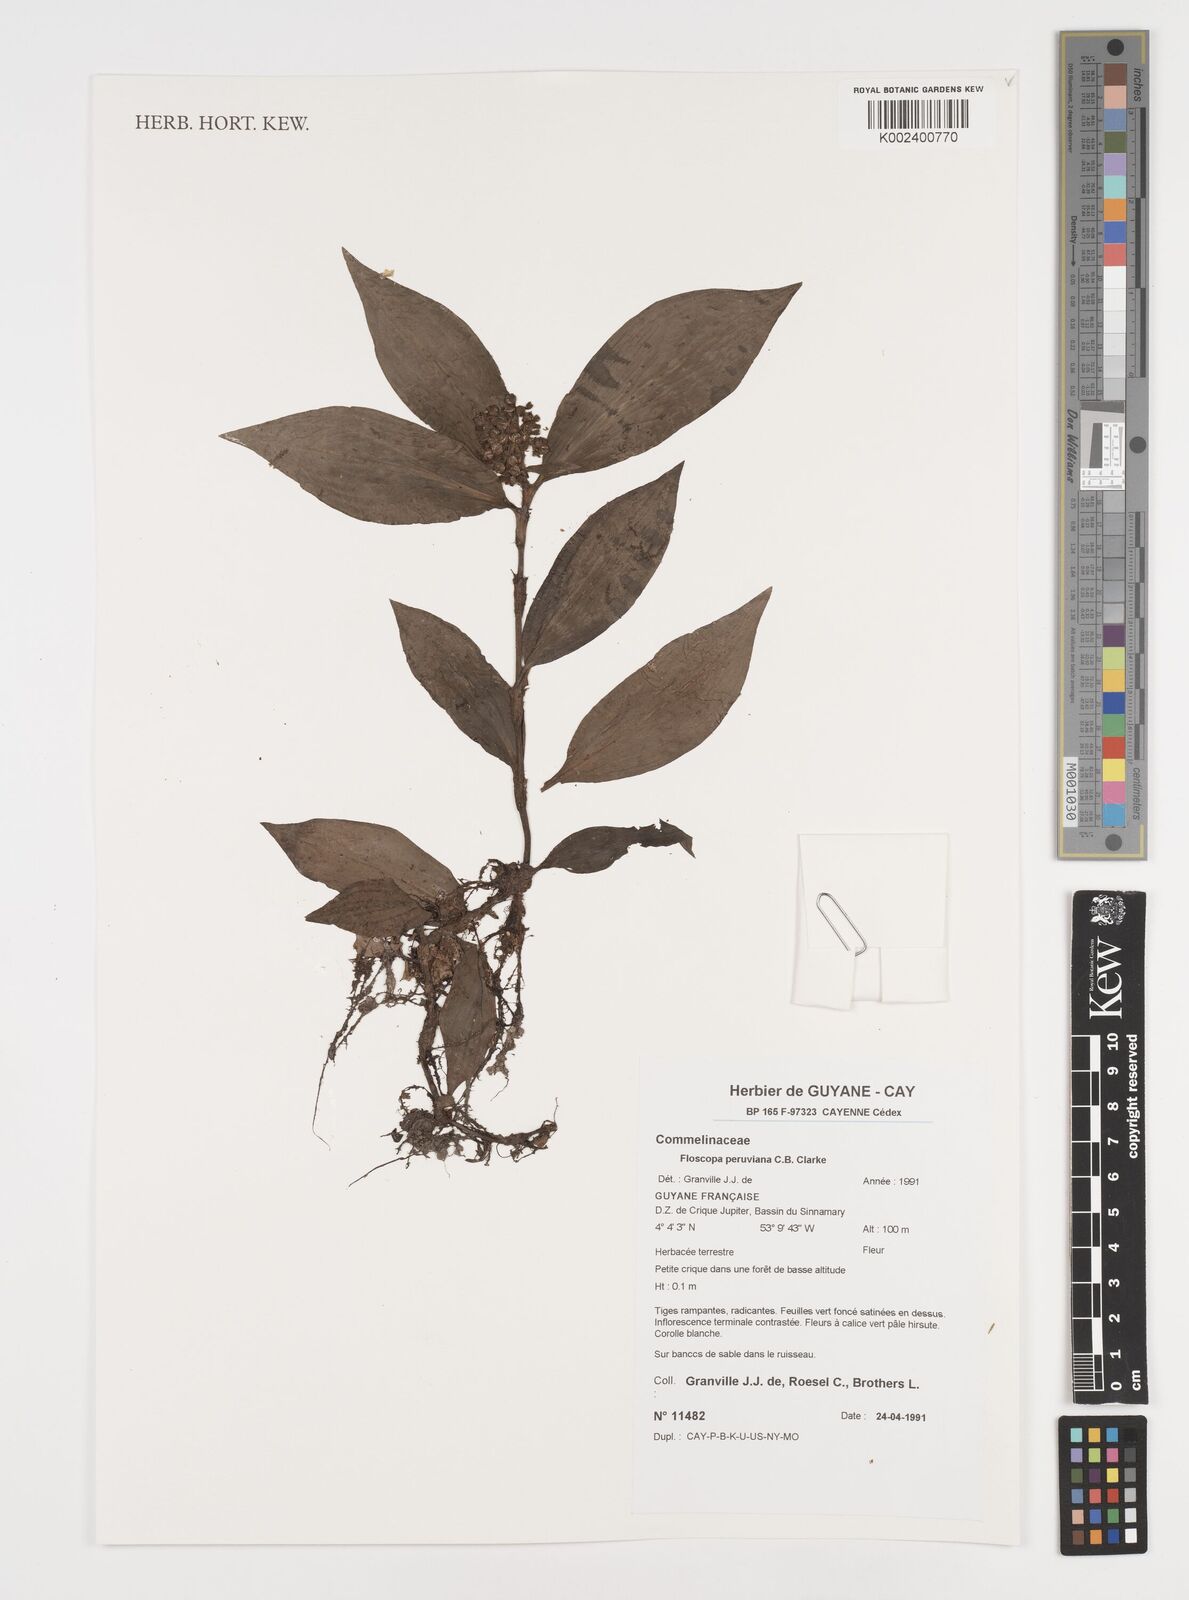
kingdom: Plantae
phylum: Tracheophyta
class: Liliopsida
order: Commelinales
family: Commelinaceae
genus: Floscopa
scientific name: Floscopa peruviana
